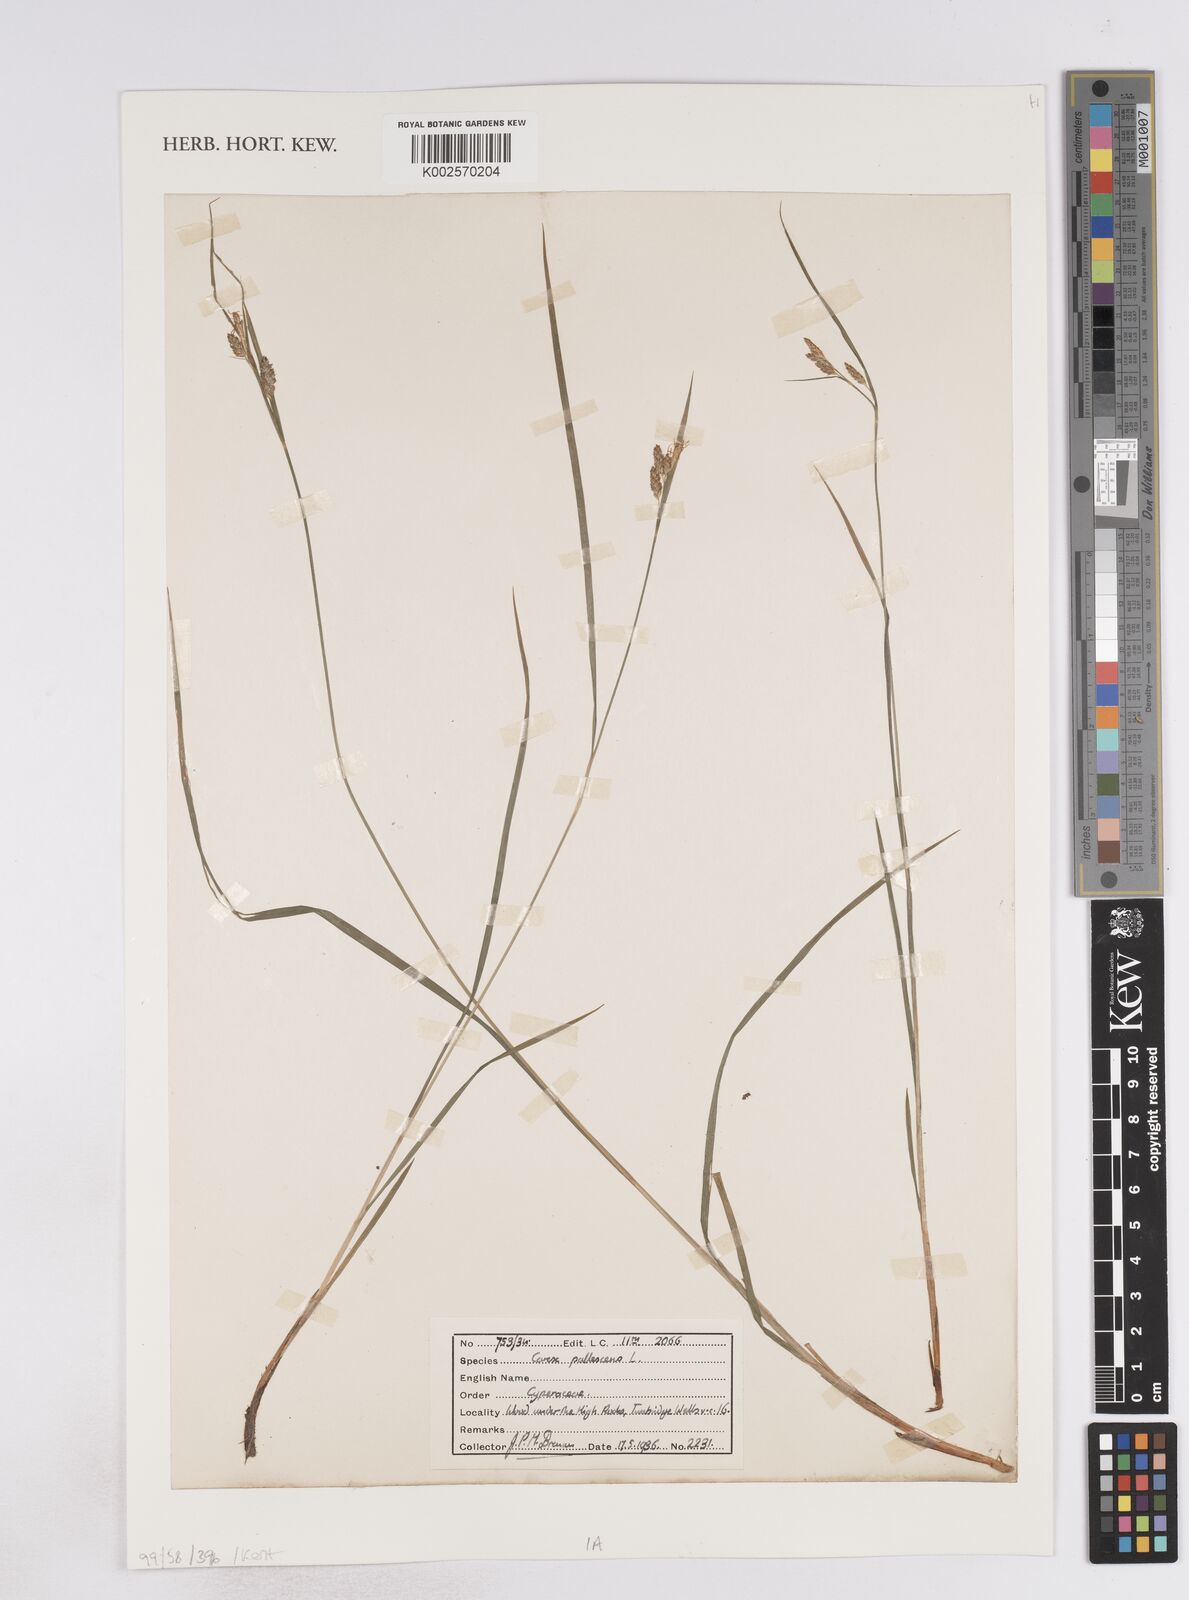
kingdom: Plantae
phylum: Tracheophyta
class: Liliopsida
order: Poales
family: Cyperaceae
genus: Carex
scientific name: Carex pallescens
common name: Pale sedge
